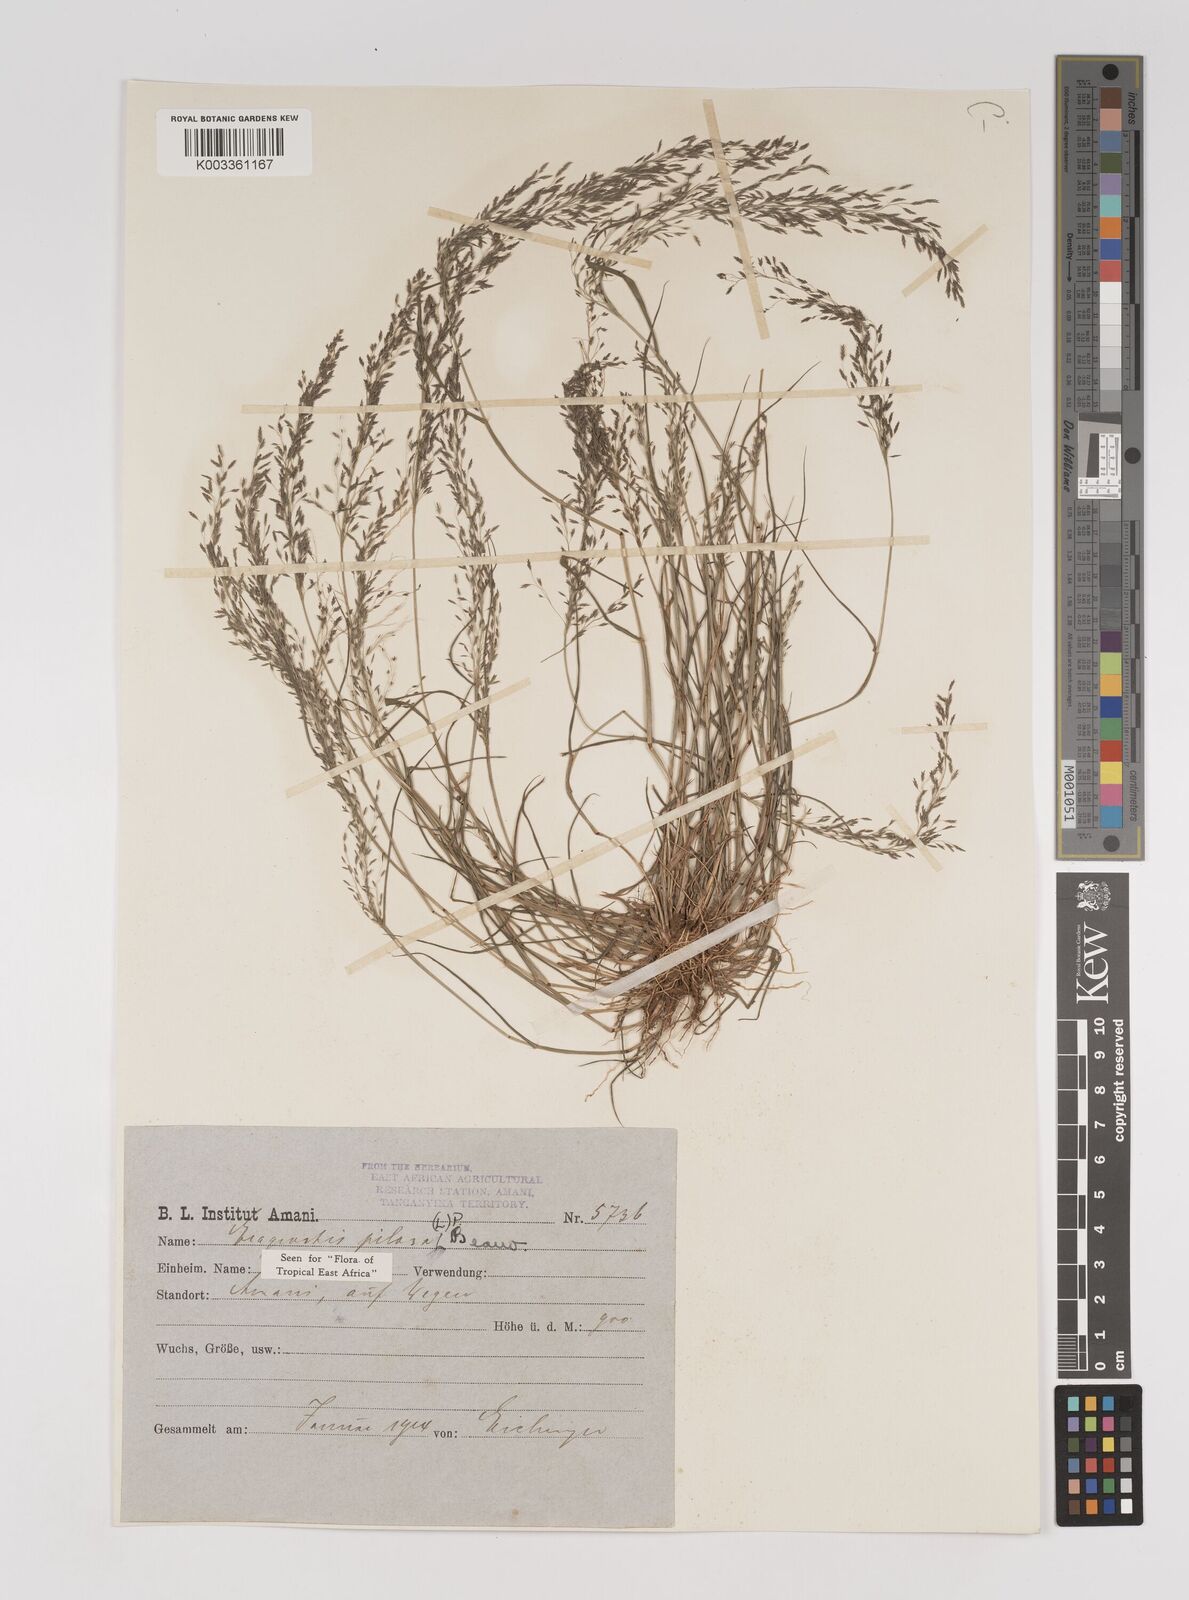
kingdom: Plantae
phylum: Tracheophyta
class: Liliopsida
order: Poales
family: Poaceae
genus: Eragrostis
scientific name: Eragrostis pilosa
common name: Indian lovegrass
